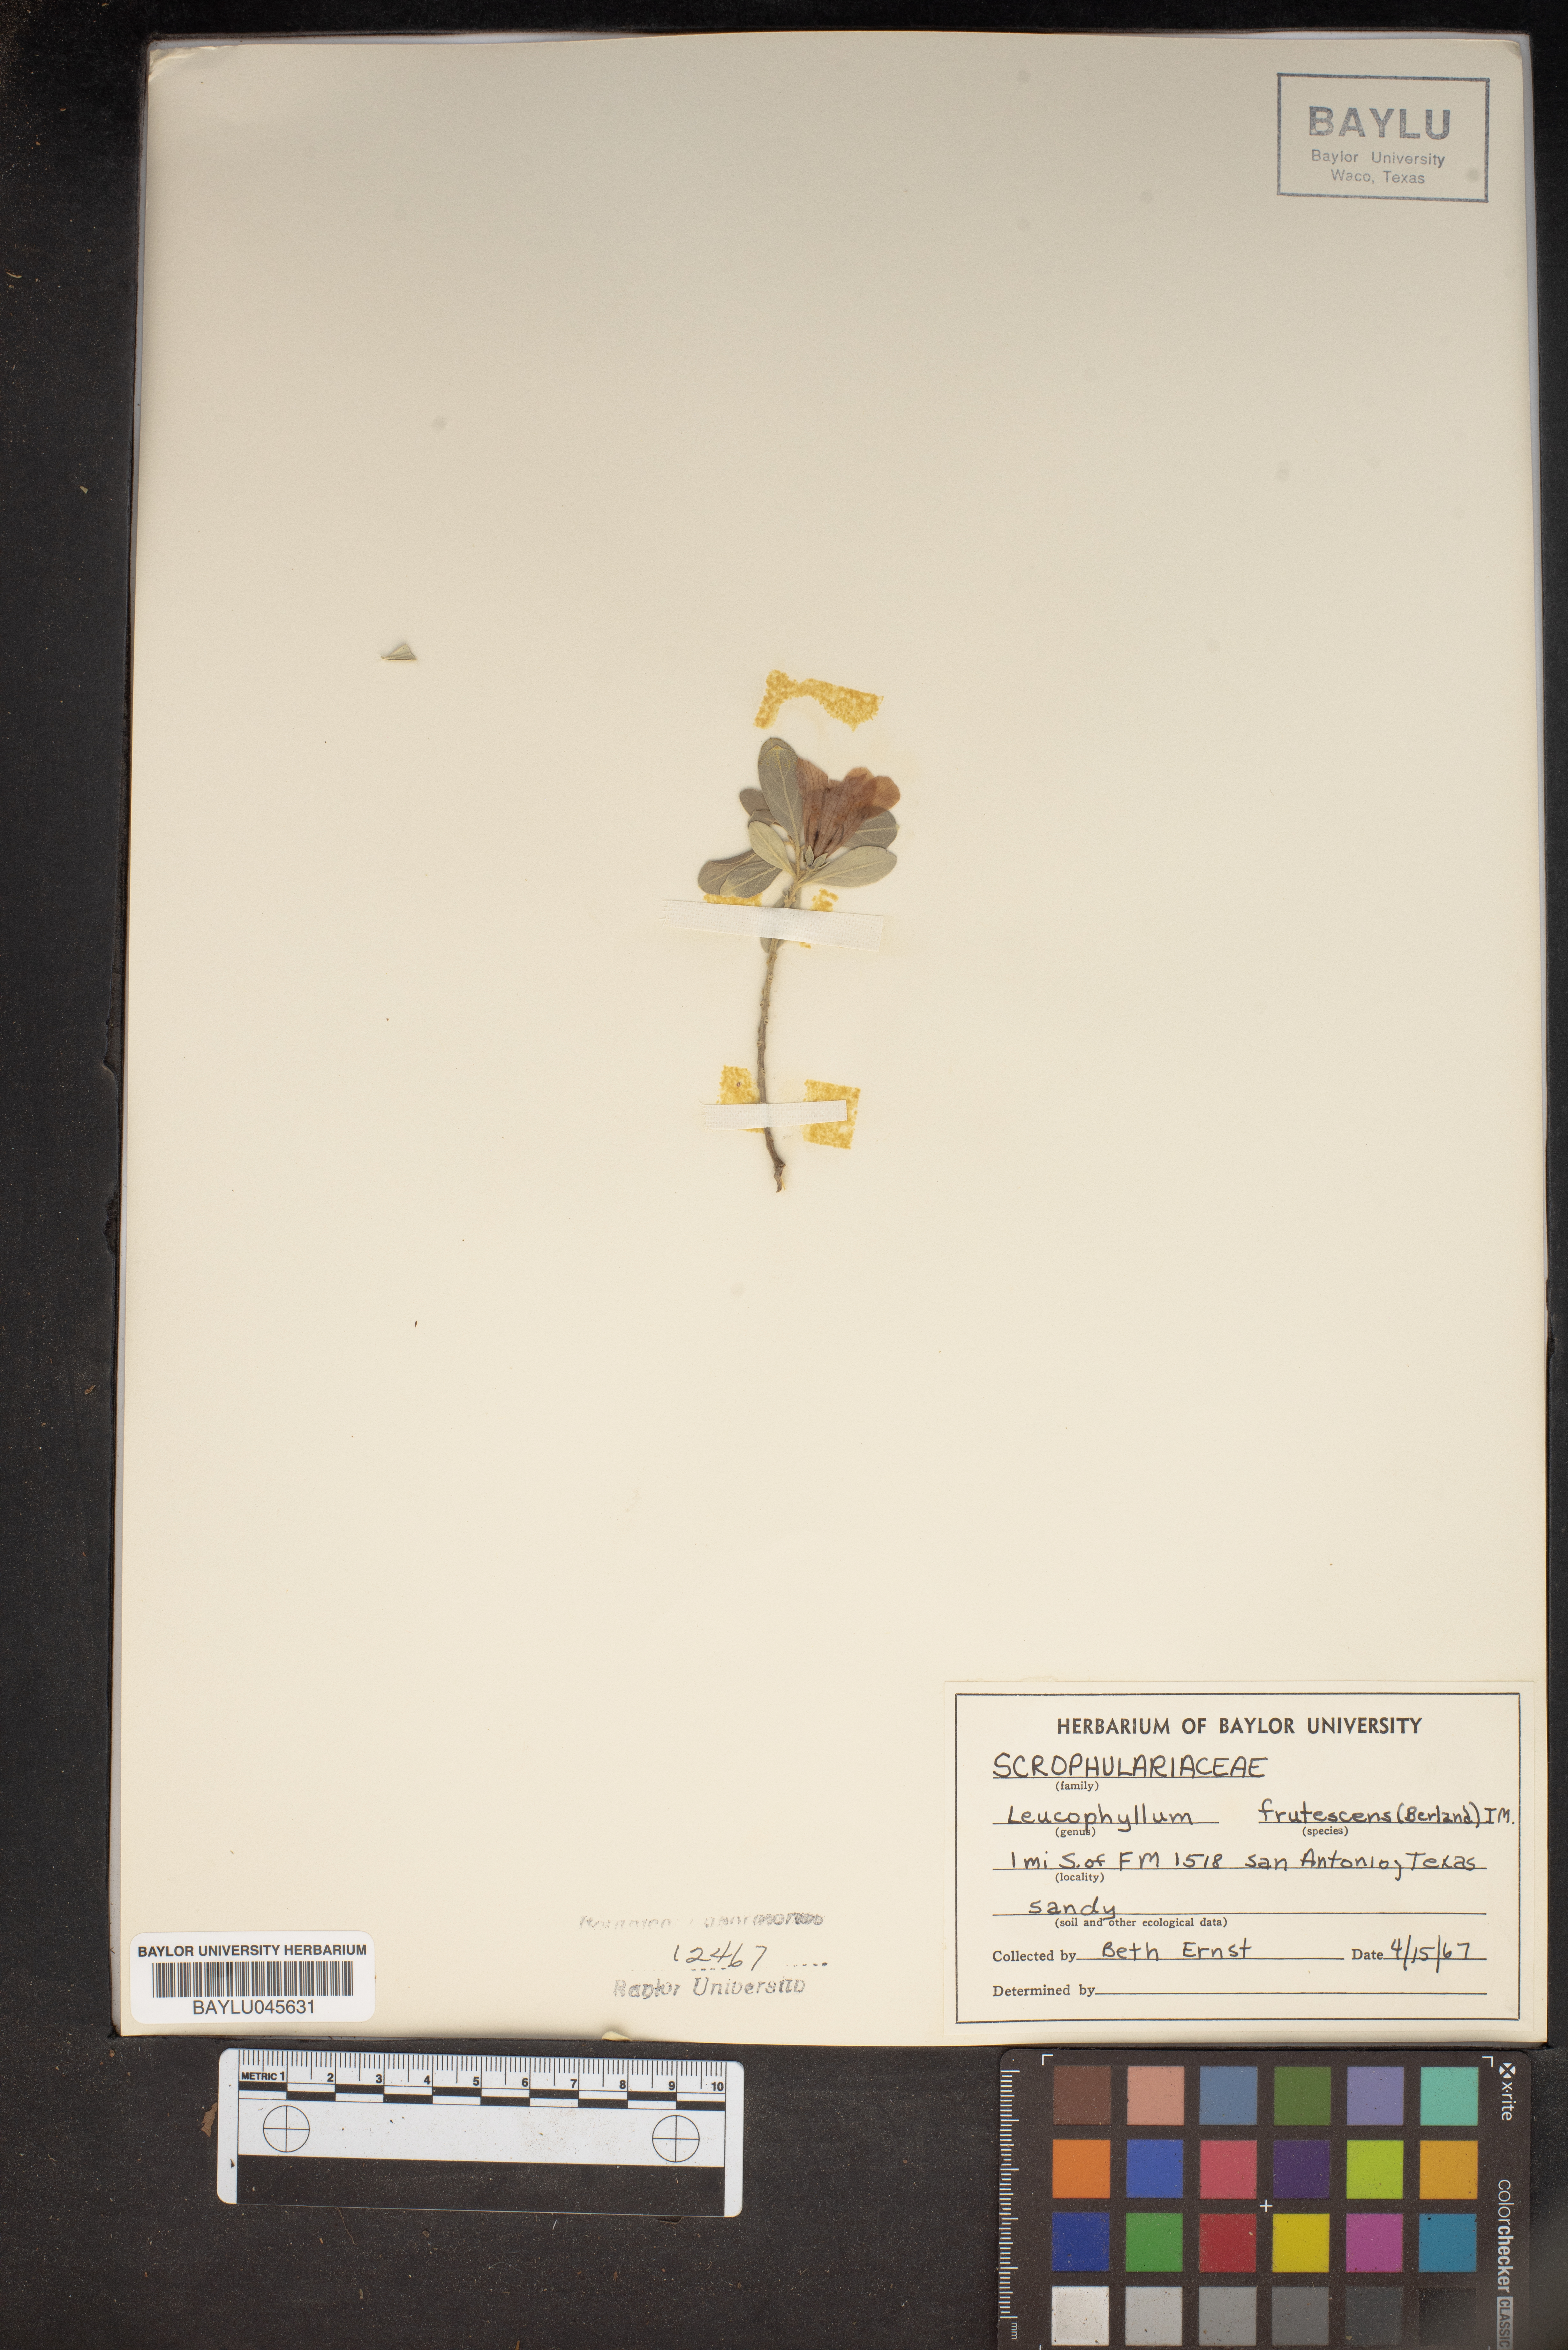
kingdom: Plantae
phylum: Tracheophyta
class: Magnoliopsida
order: Lamiales
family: Scrophulariaceae
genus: Leucophyllum
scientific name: Leucophyllum frutescens
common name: Texas silverleaf
